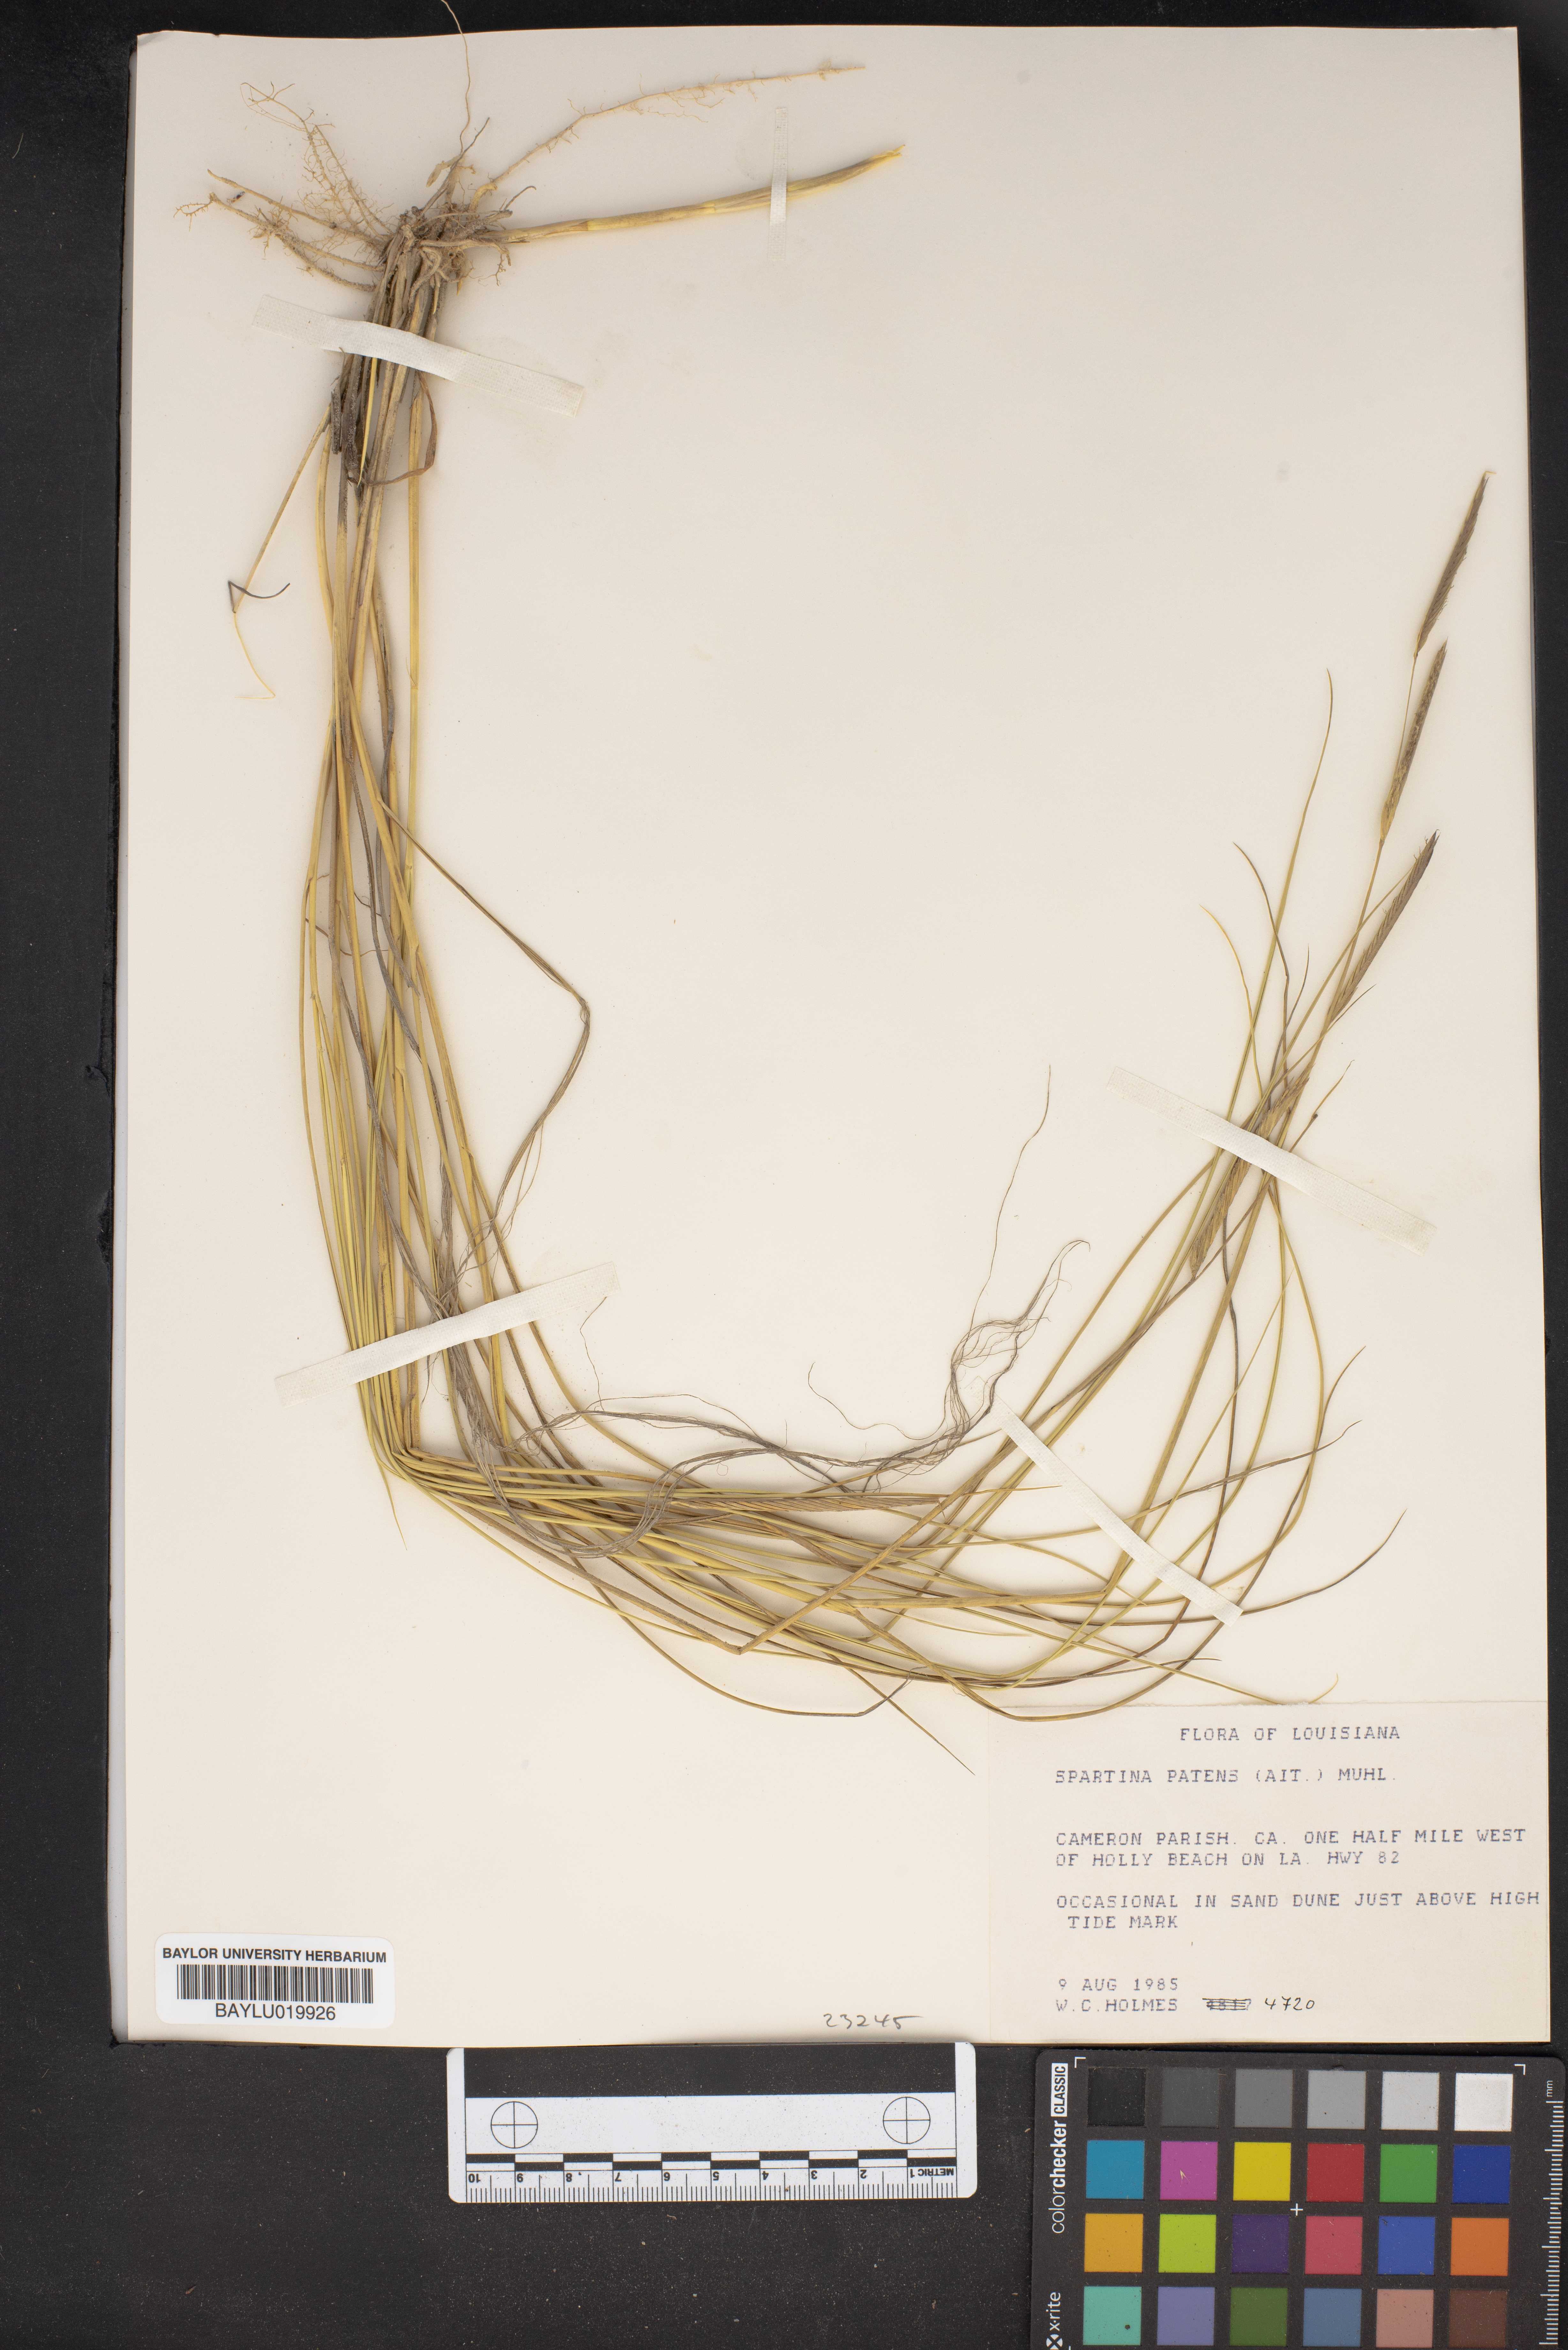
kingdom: Plantae
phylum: Tracheophyta
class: Liliopsida
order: Poales
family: Poaceae
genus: Sporobolus
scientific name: Sporobolus pumilus
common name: Highwater grass
